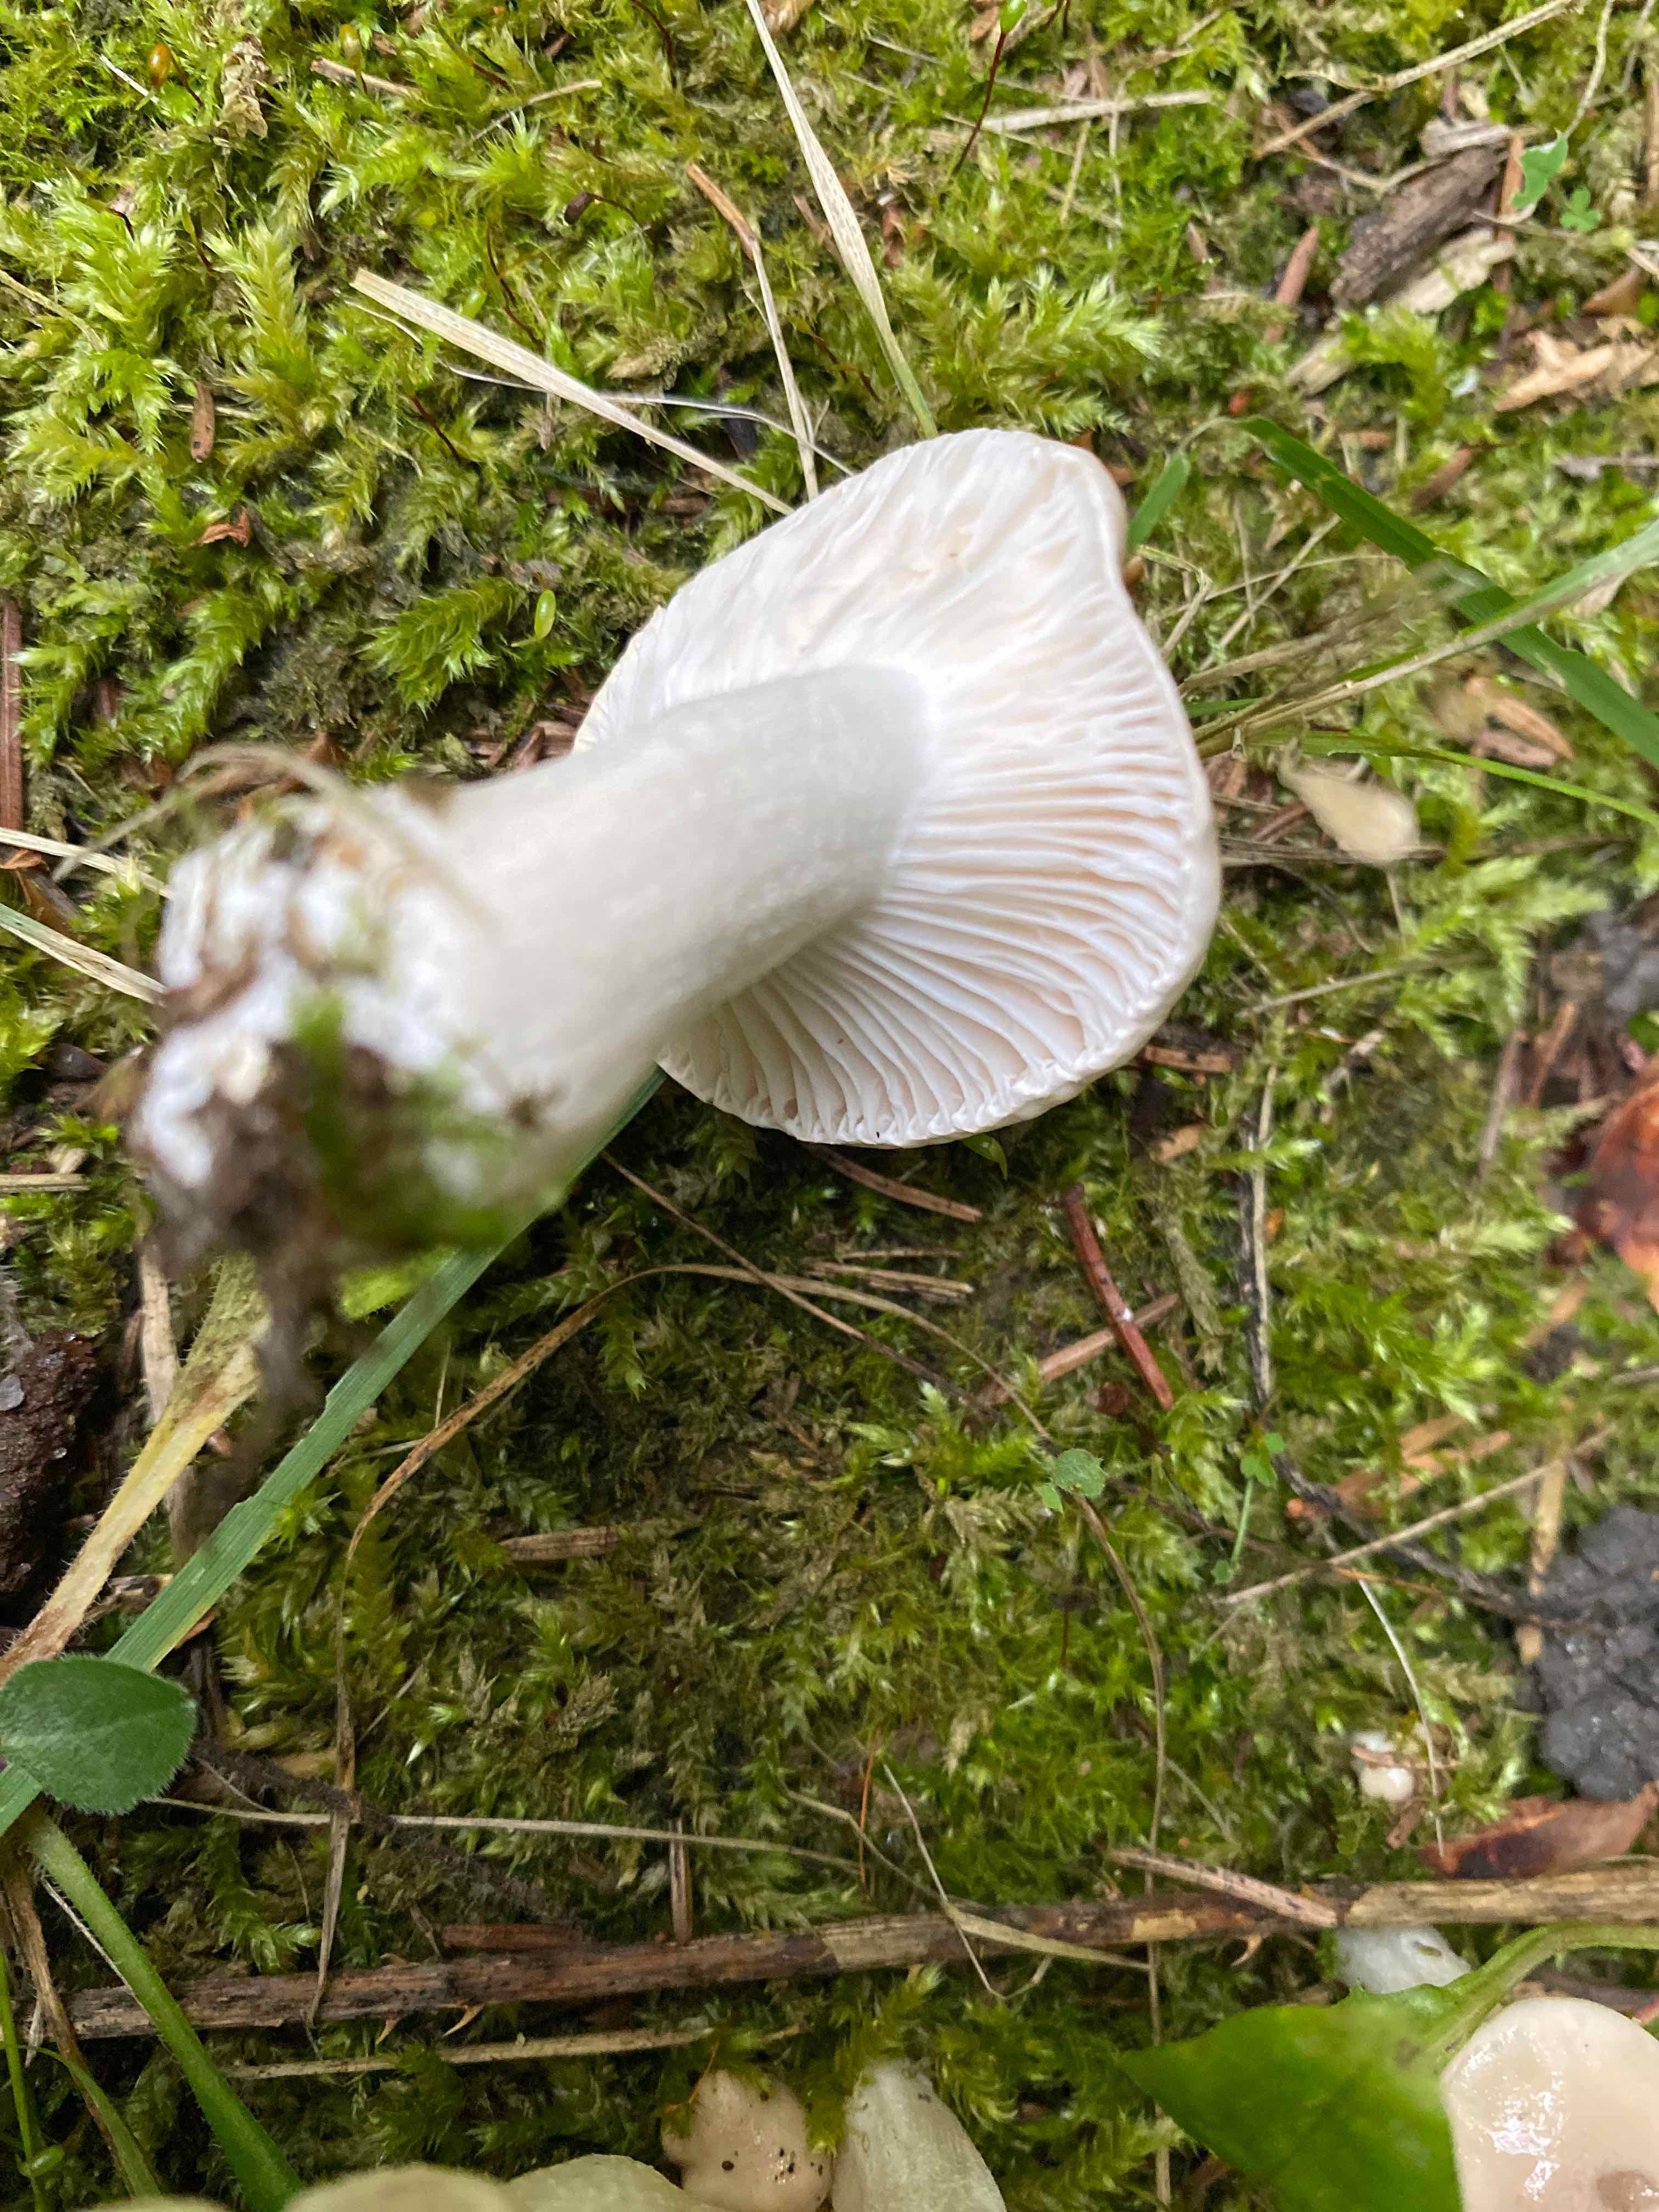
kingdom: Fungi
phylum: Basidiomycota
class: Agaricomycetes
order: Agaricales
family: Hygrophoraceae
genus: Hygrophorus
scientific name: Hygrophorus
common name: sneglehat
